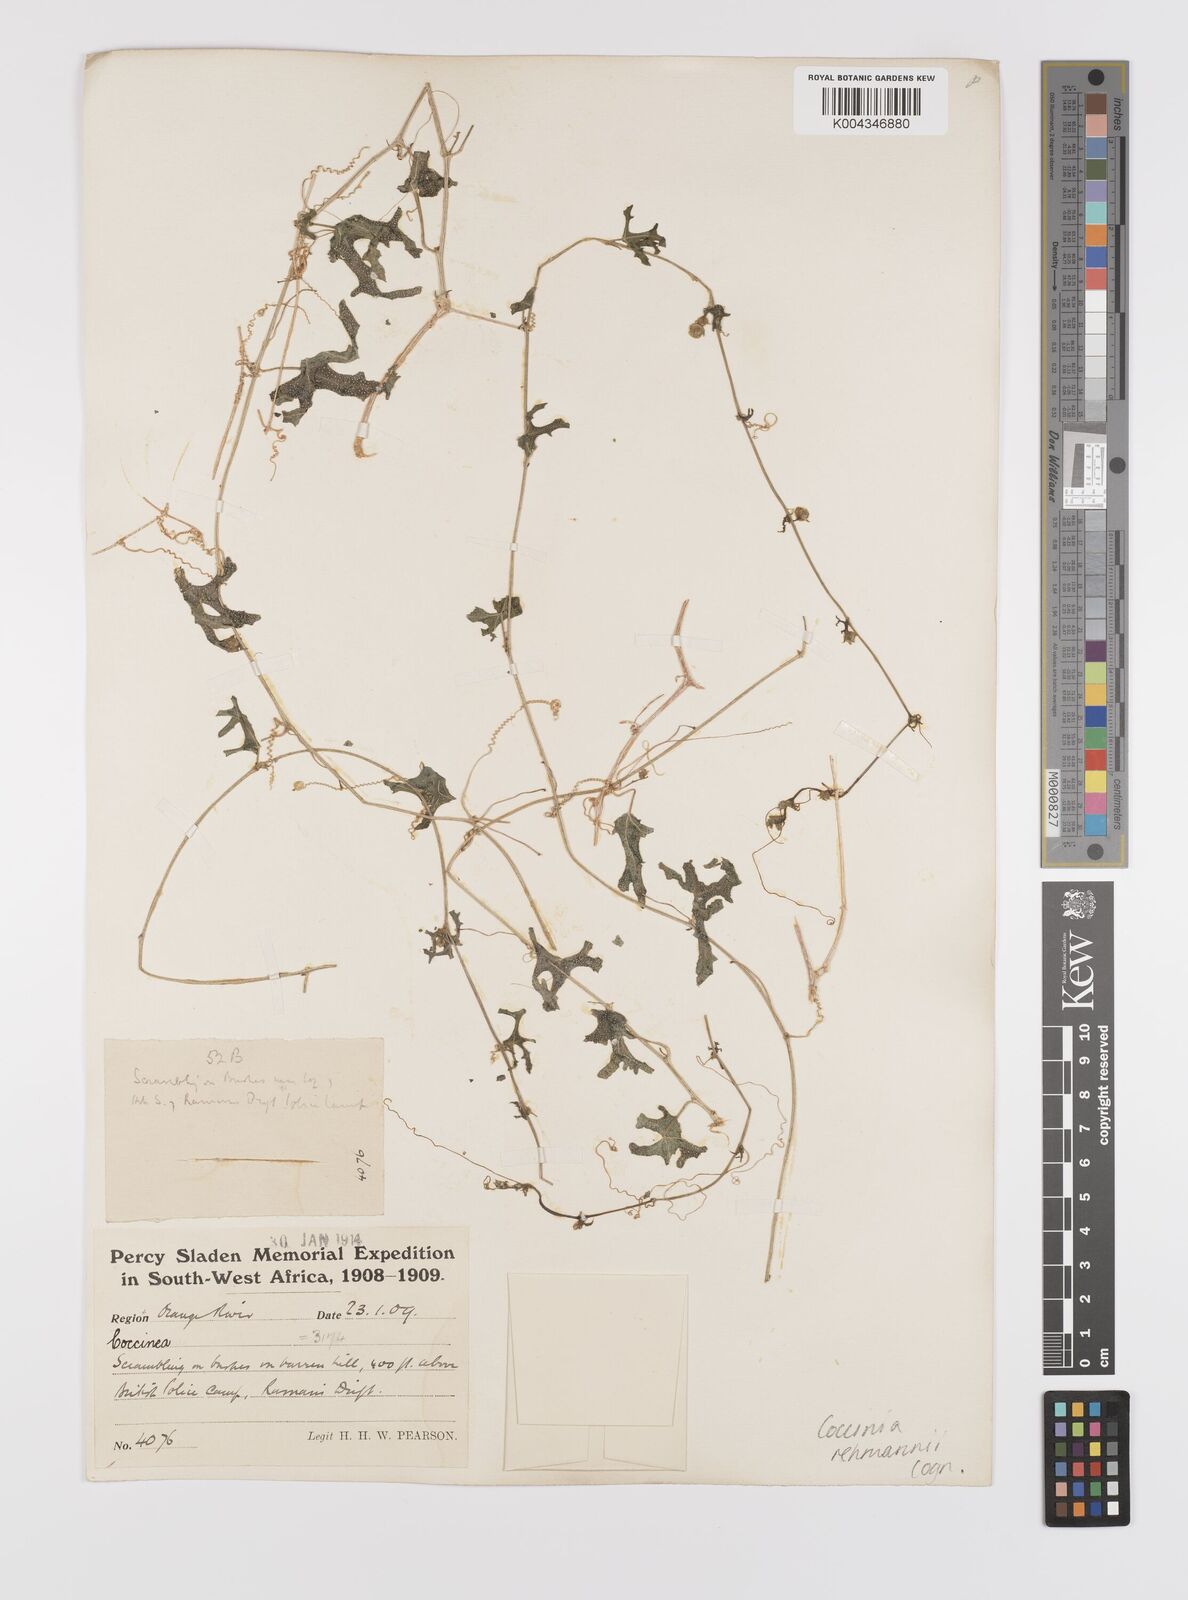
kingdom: Plantae
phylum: Tracheophyta
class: Magnoliopsida
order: Cucurbitales
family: Cucurbitaceae
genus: Coccinia
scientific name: Coccinia rehmannii
